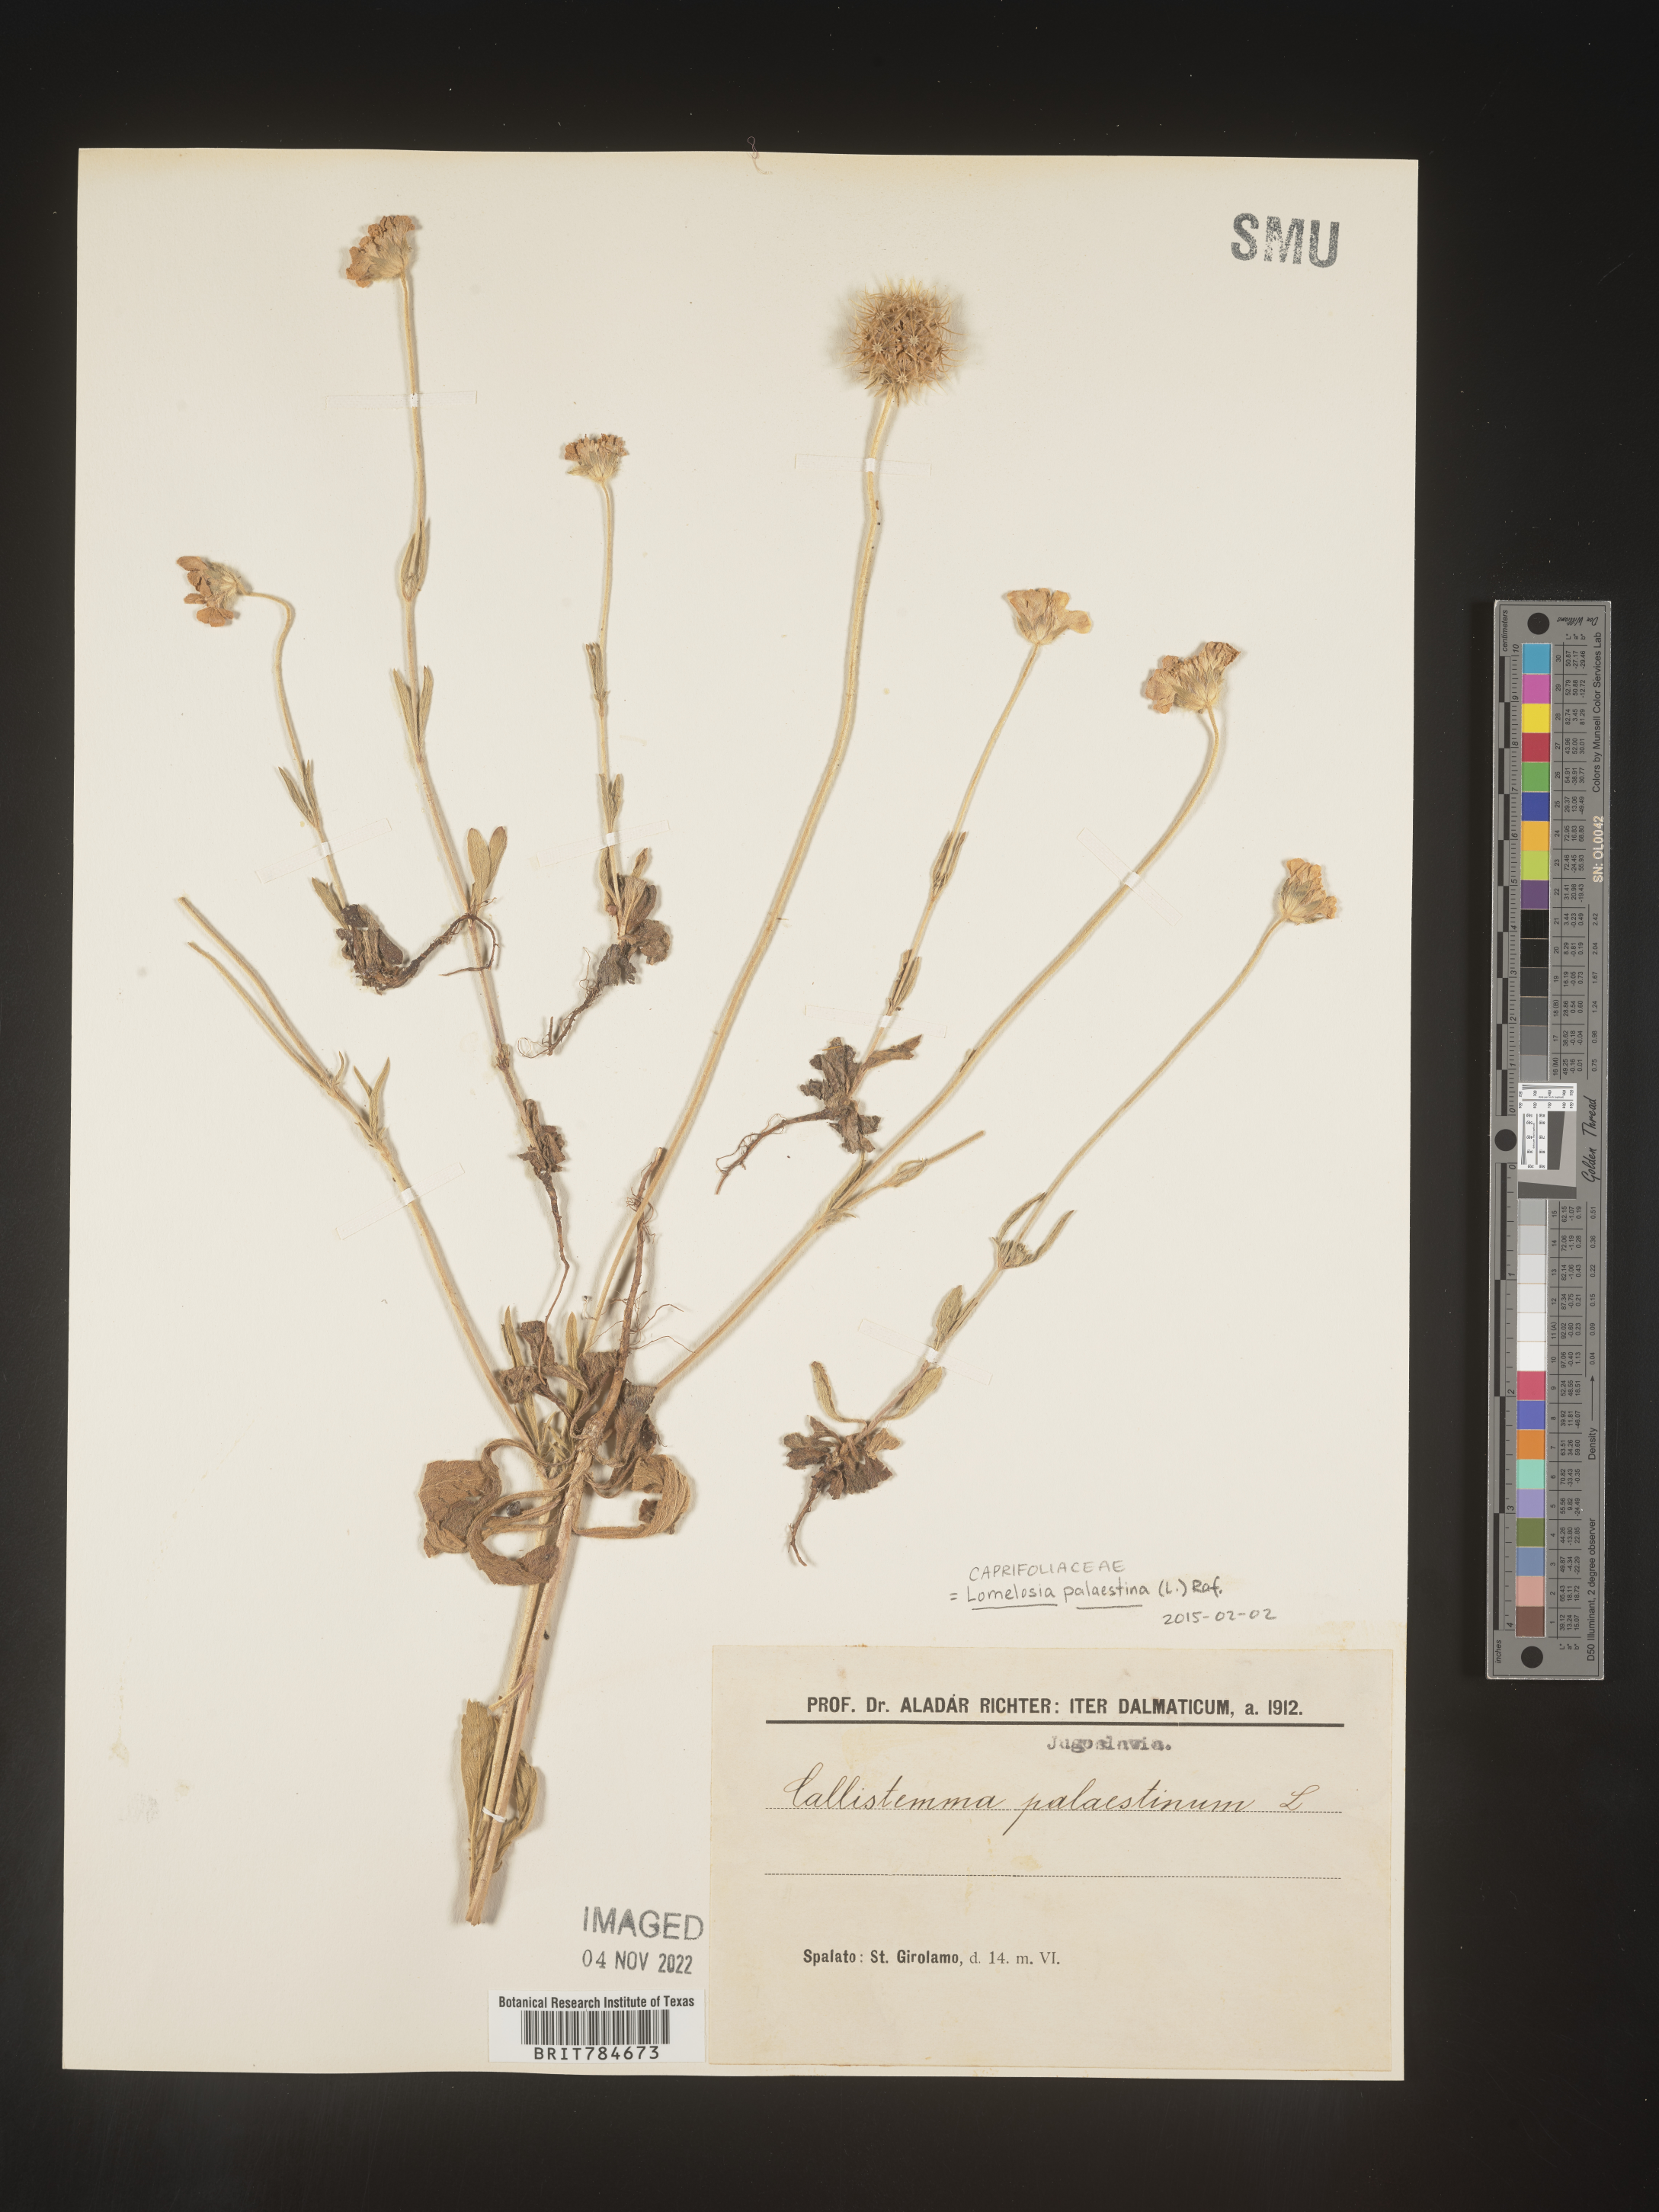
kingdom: Plantae
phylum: Tracheophyta
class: Magnoliopsida
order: Dipsacales
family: Caprifoliaceae
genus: Lomelosia
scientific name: Lomelosia
